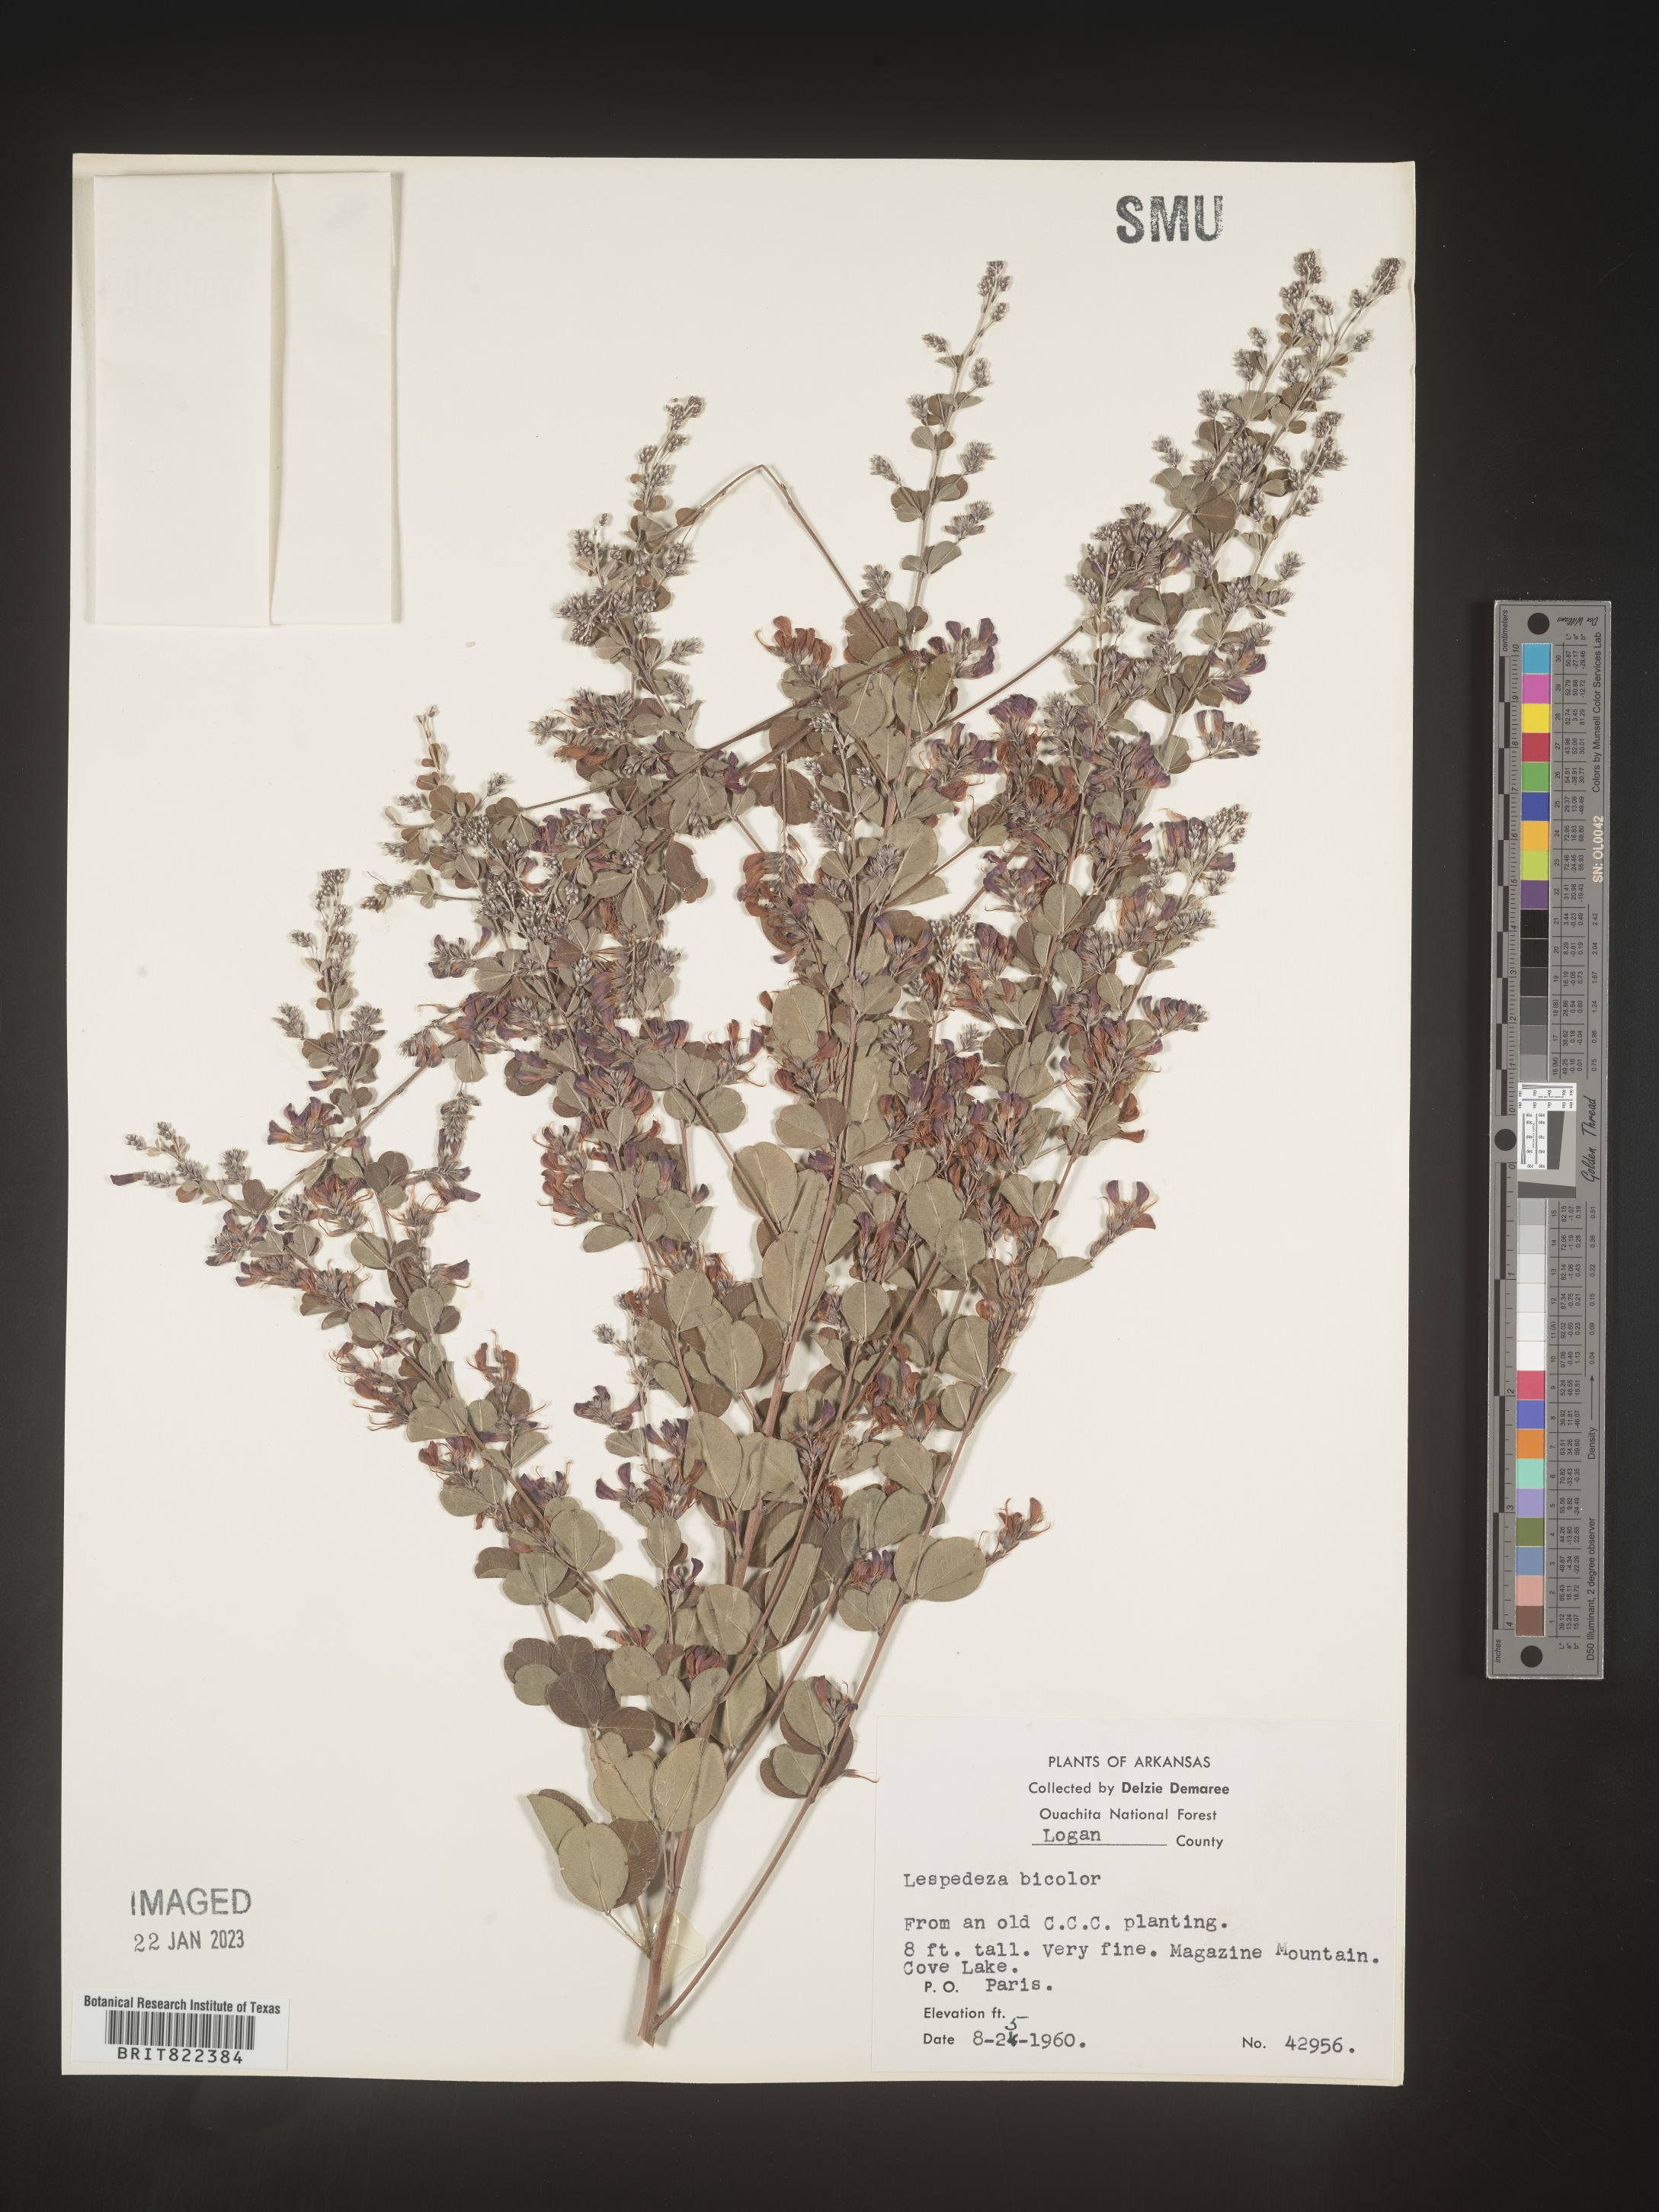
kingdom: Plantae
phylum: Tracheophyta
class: Magnoliopsida
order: Fabales
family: Fabaceae
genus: Lespedeza
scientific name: Lespedeza
